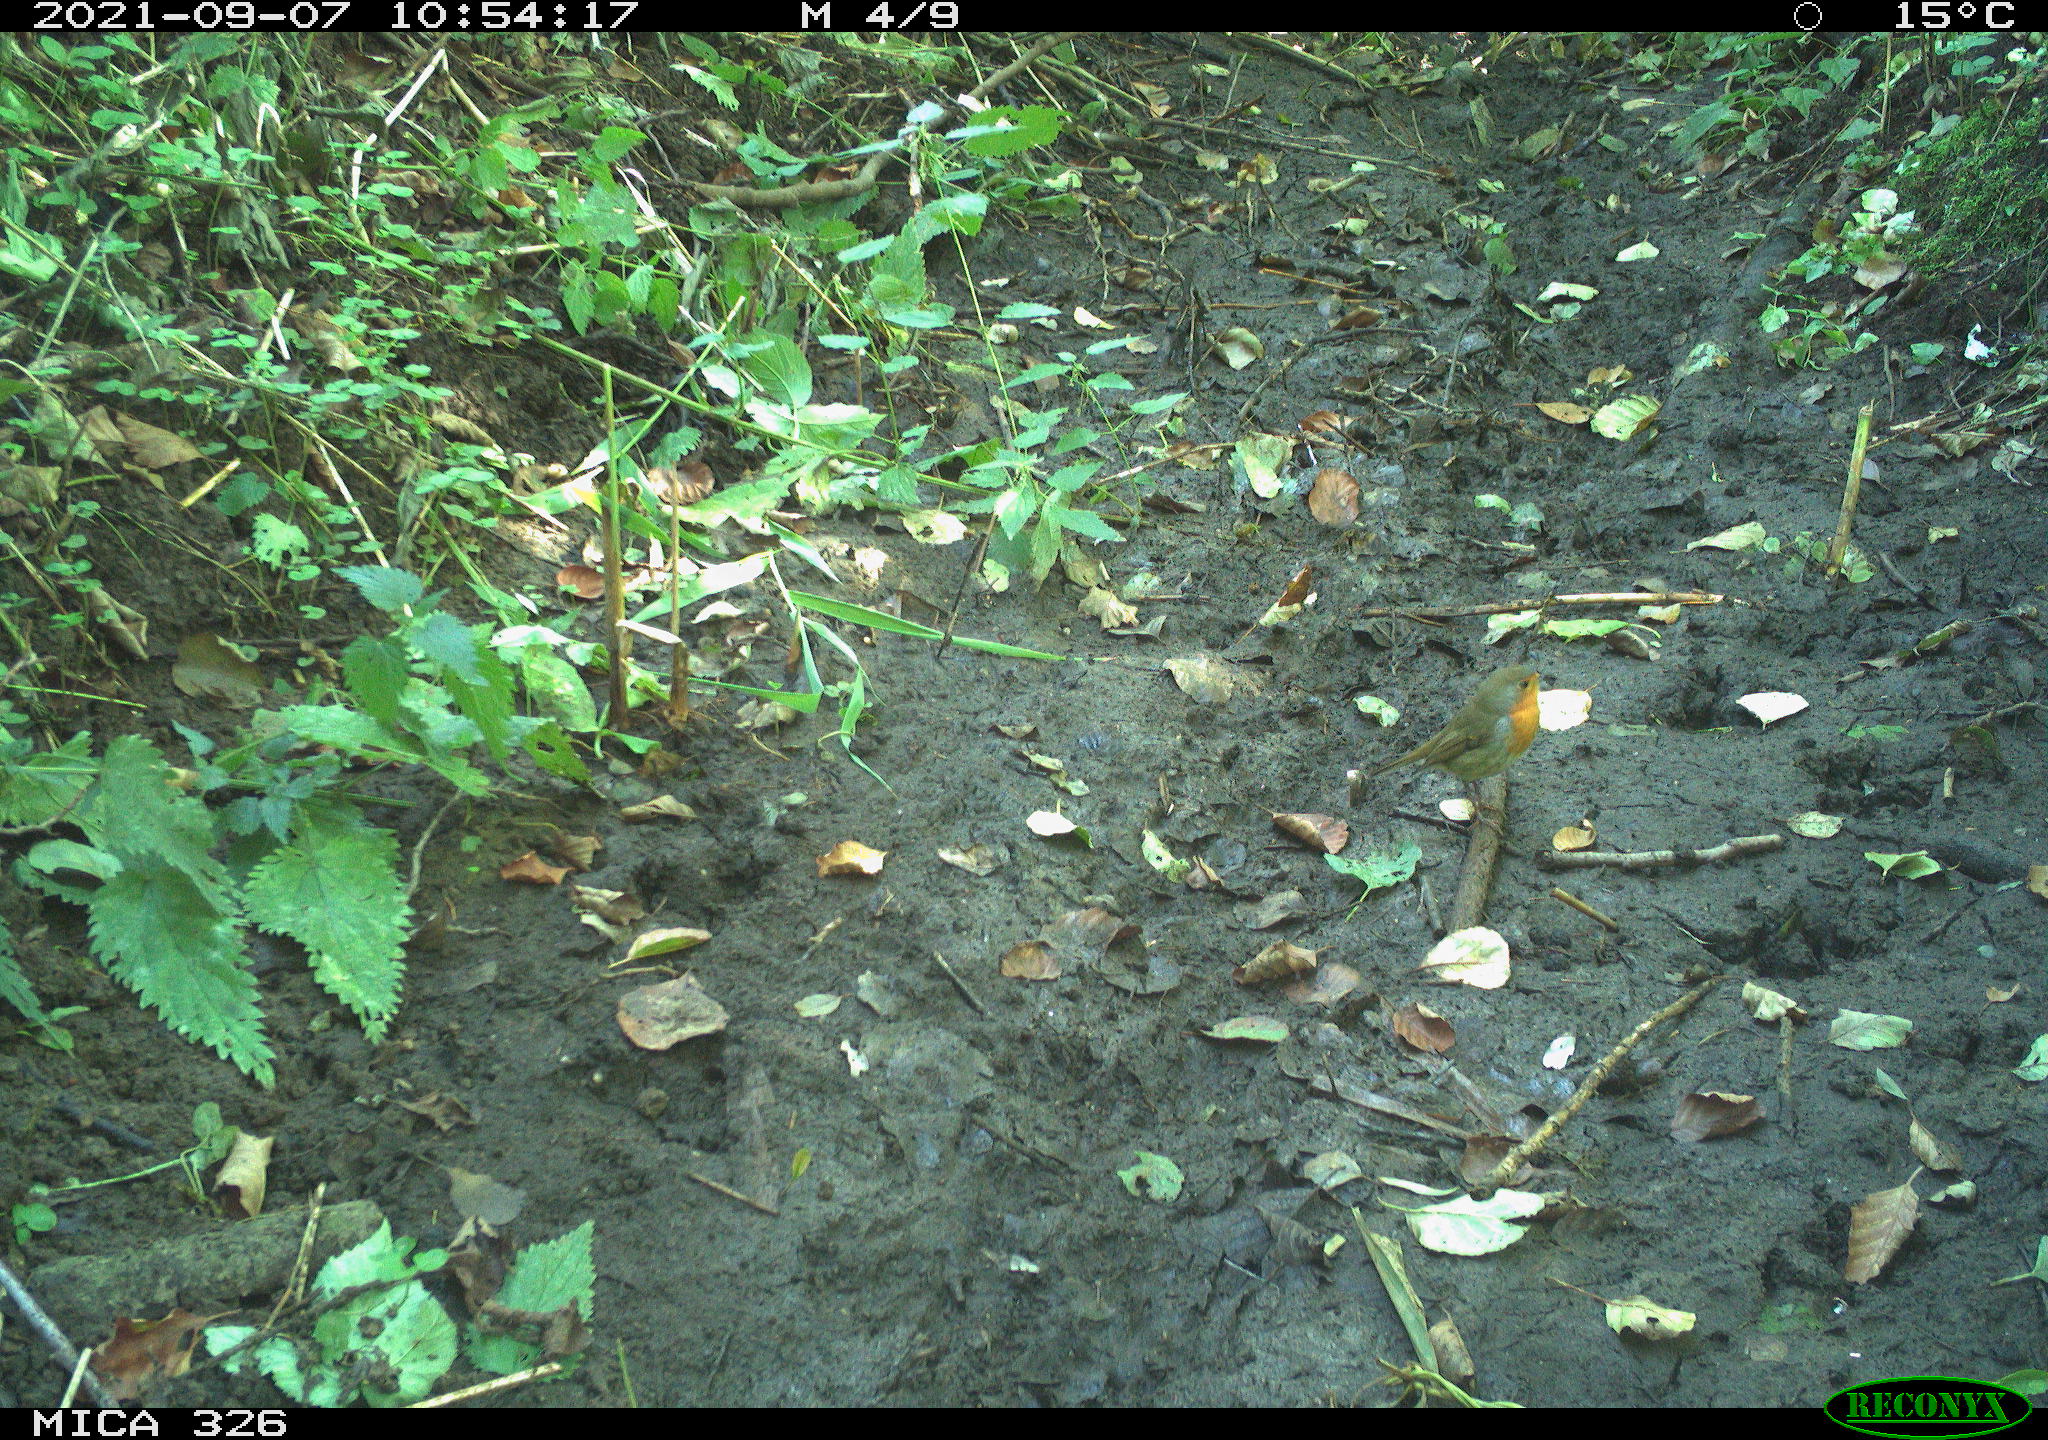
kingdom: Animalia
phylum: Chordata
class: Aves
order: Passeriformes
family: Muscicapidae
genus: Erithacus
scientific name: Erithacus rubecula
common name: European robin
